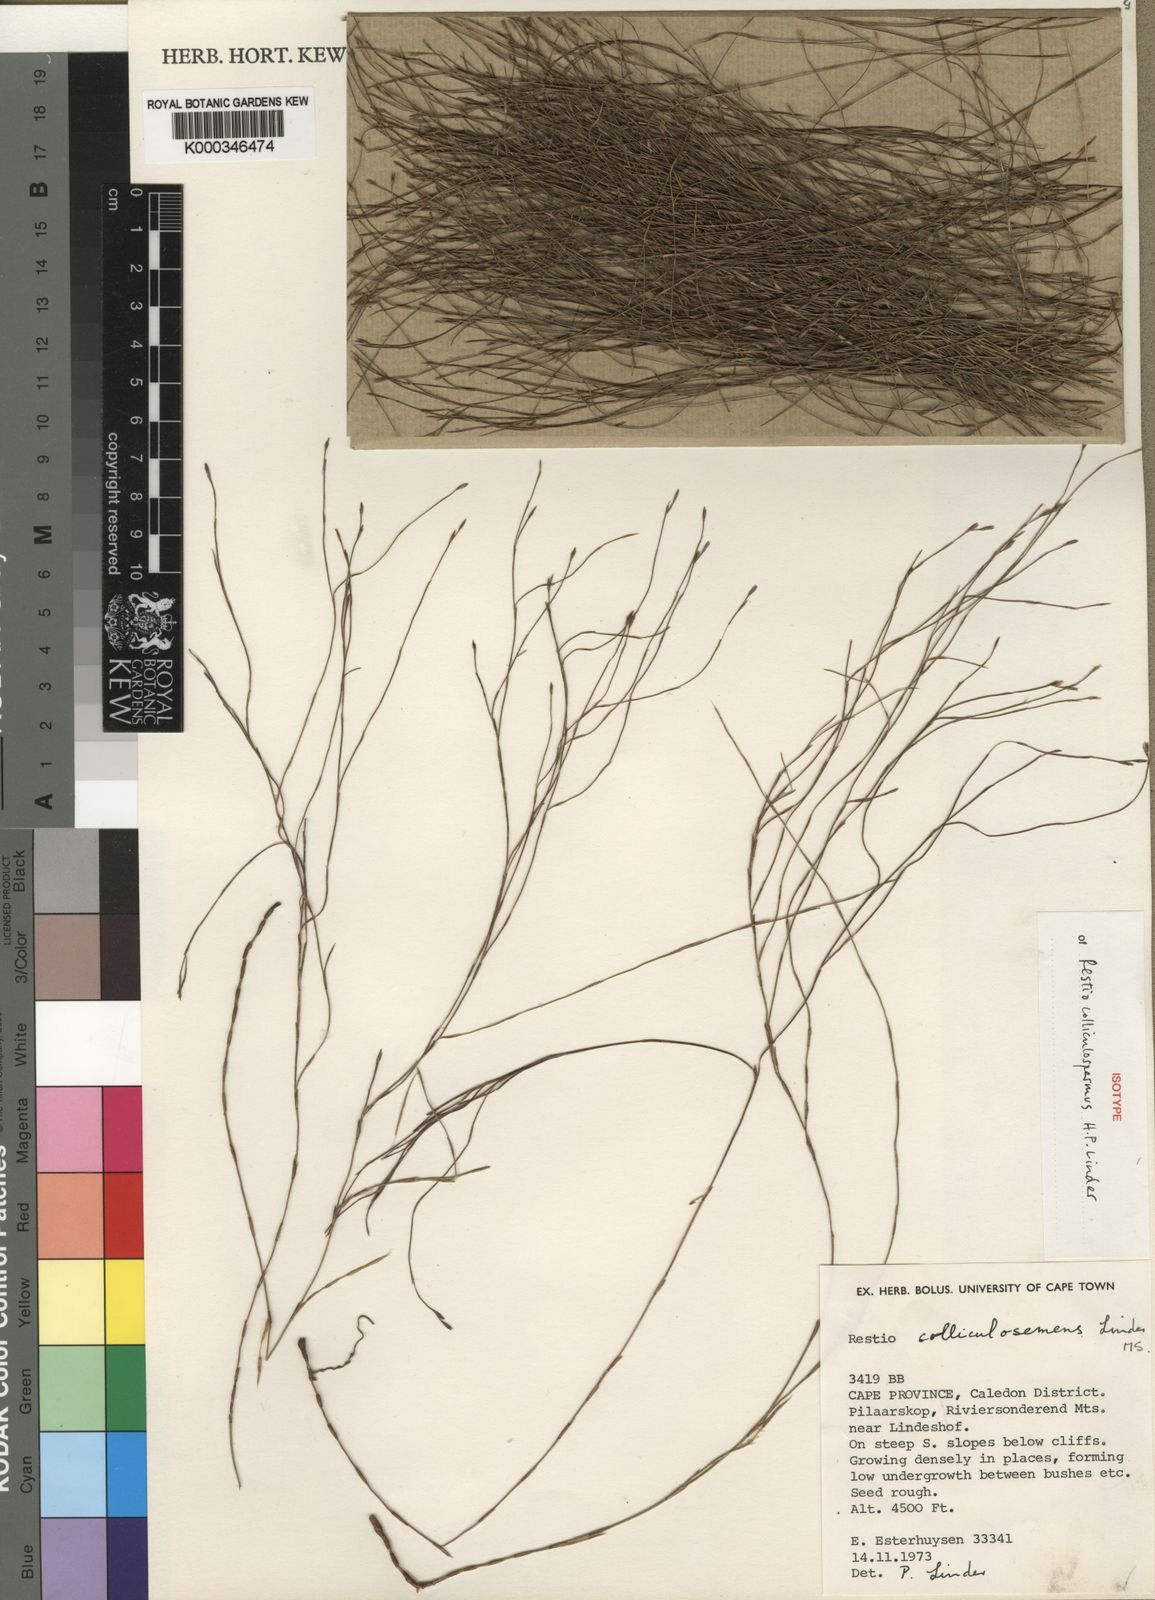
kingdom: Plantae
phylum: Tracheophyta
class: Liliopsida
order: Poales
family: Restionaceae
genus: Restio
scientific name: Restio colliculospermus
